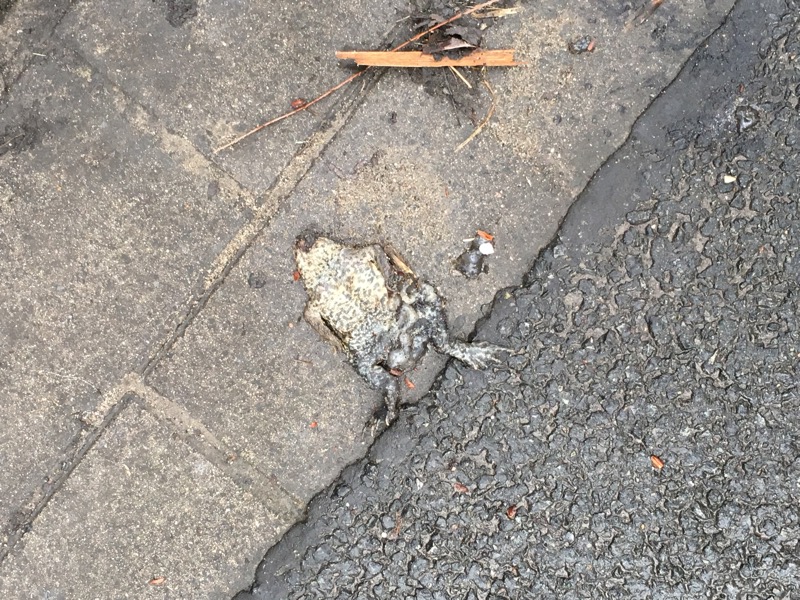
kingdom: Animalia
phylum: Chordata
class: Amphibia
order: Anura
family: Bufonidae
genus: Bufo
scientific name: Bufo bufo
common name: Common toad
